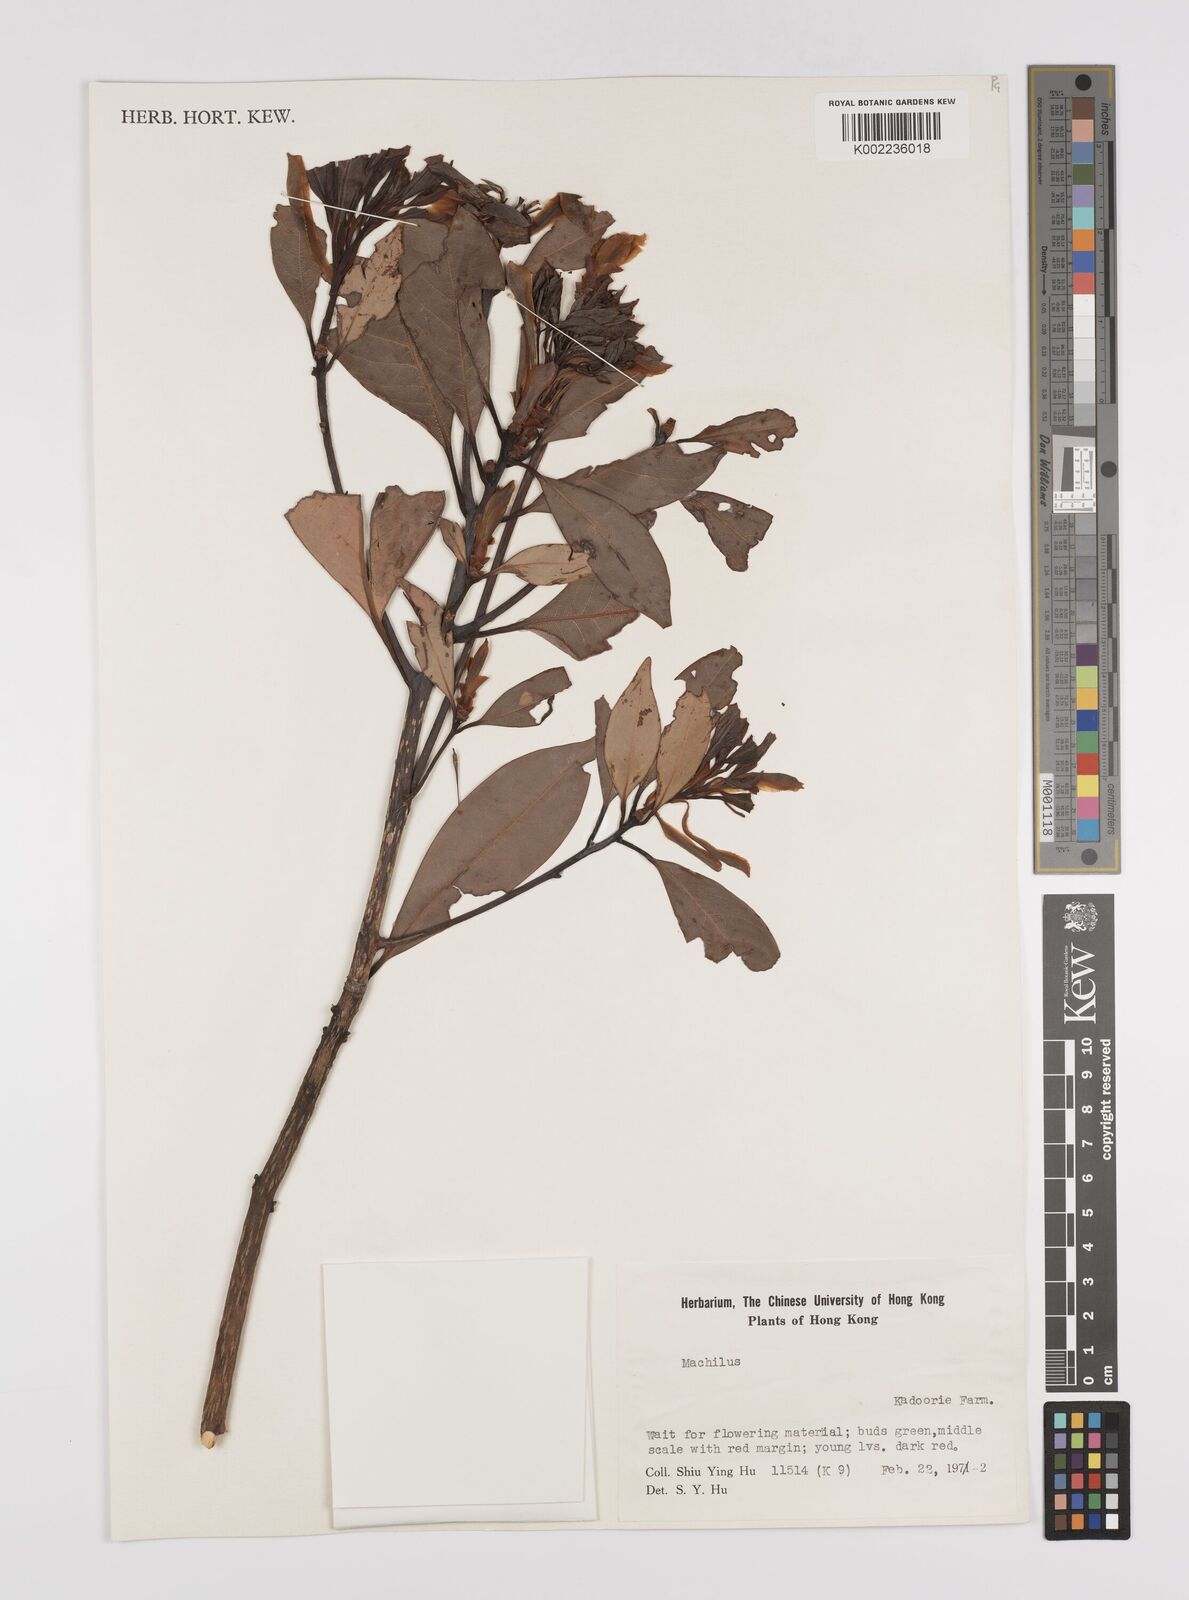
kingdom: Plantae
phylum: Tracheophyta
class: Magnoliopsida
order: Laurales
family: Lauraceae
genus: Persea
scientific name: Persea
